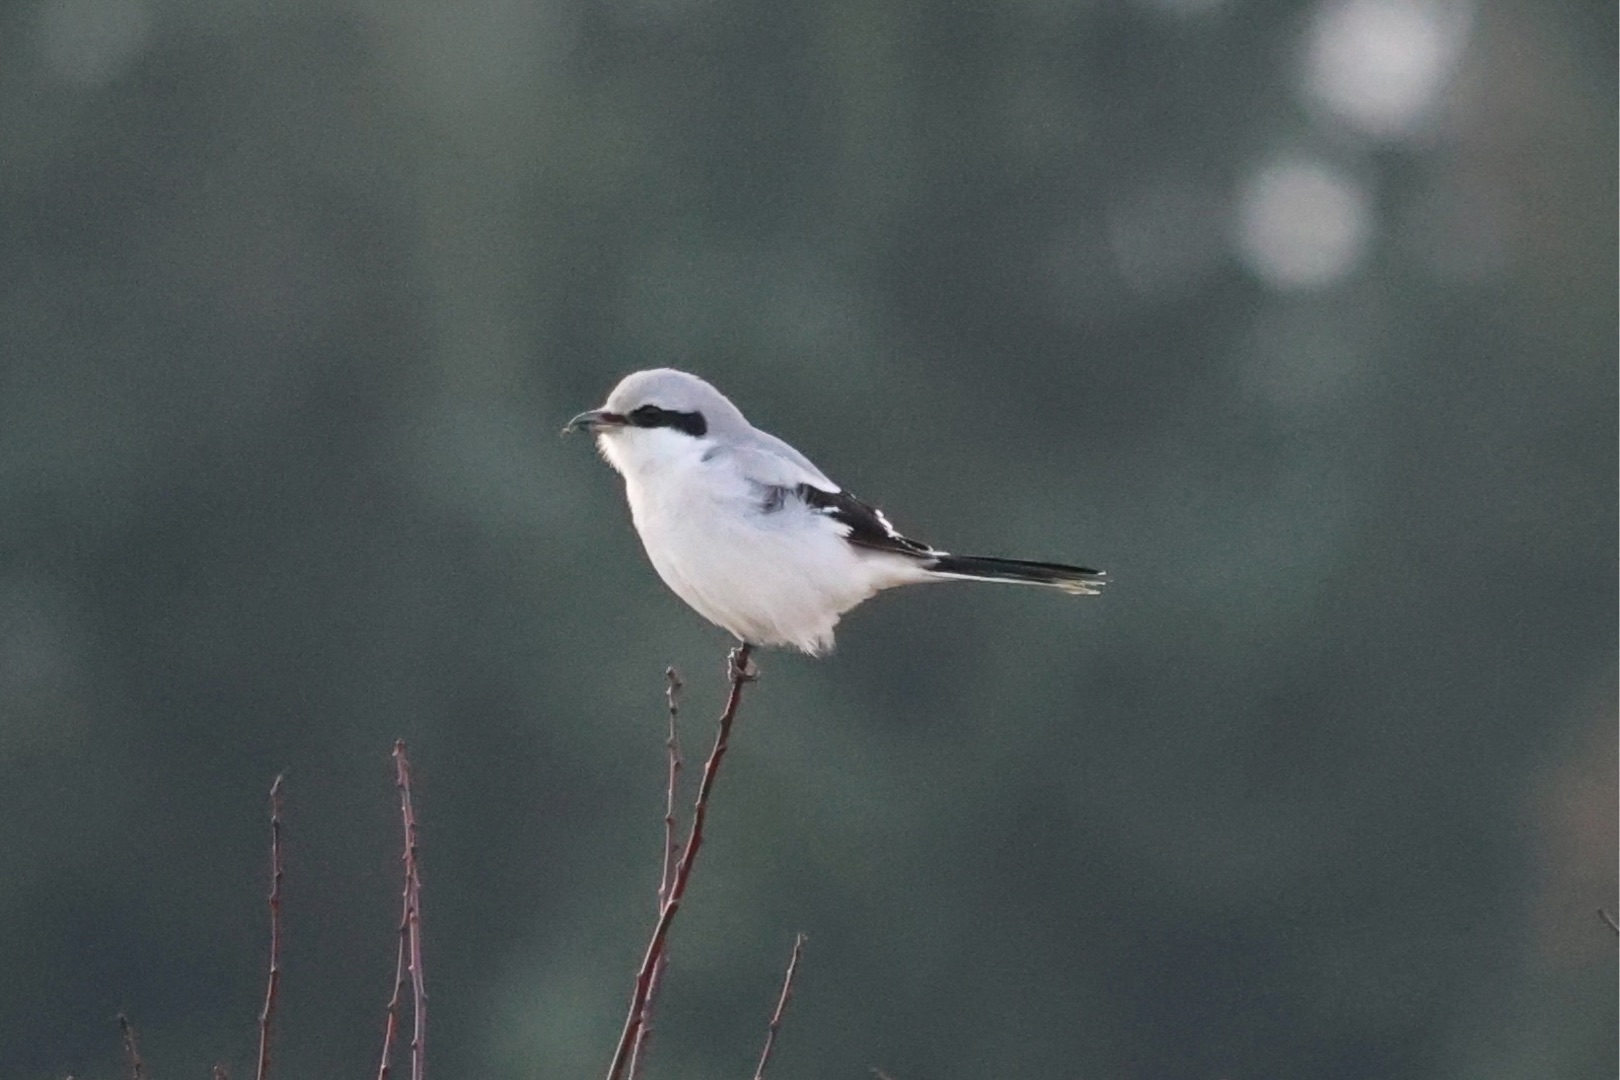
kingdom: Animalia
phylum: Chordata
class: Aves
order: Passeriformes
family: Laniidae
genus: Lanius
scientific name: Lanius excubitor
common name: Stor tornskade
